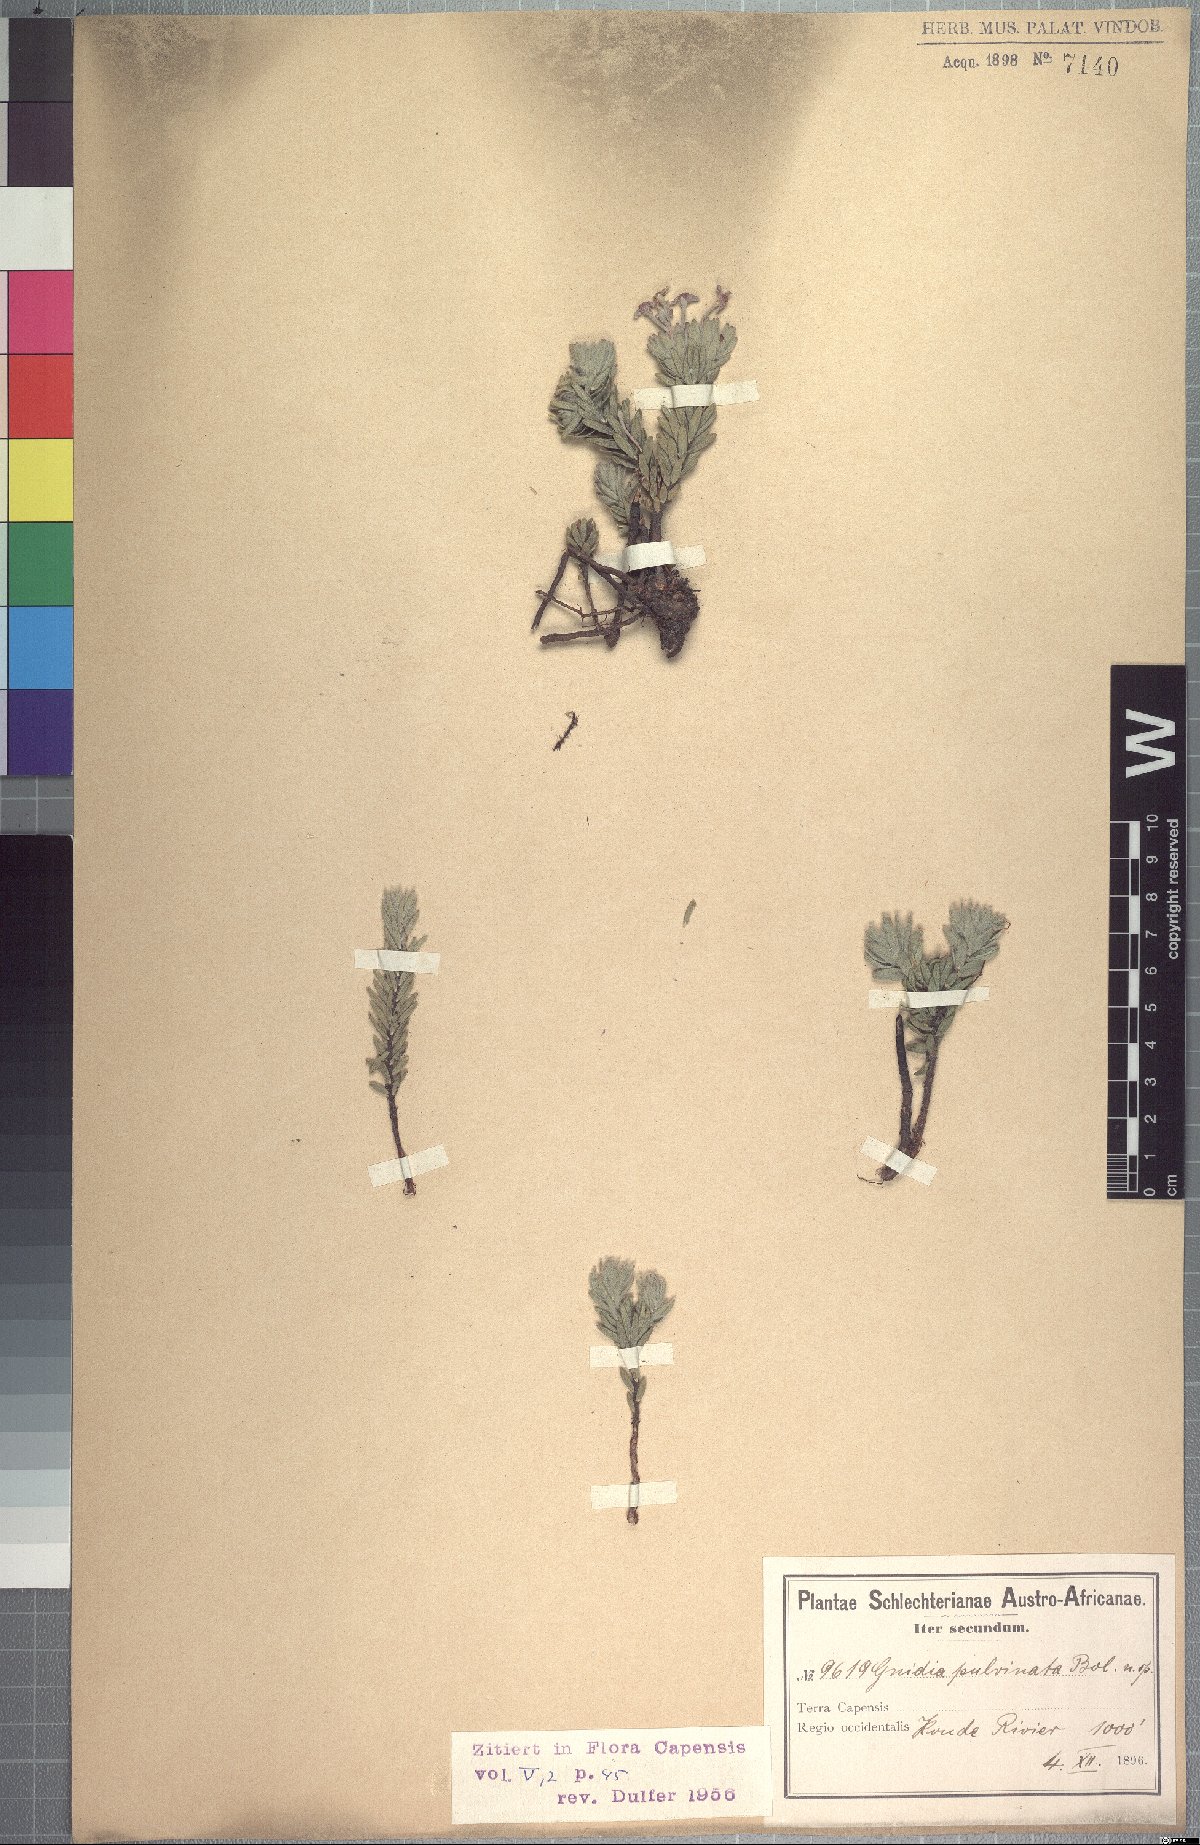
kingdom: Plantae
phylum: Tracheophyta
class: Magnoliopsida
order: Malvales
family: Thymelaeaceae
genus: Gnidia
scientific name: Gnidia nana
